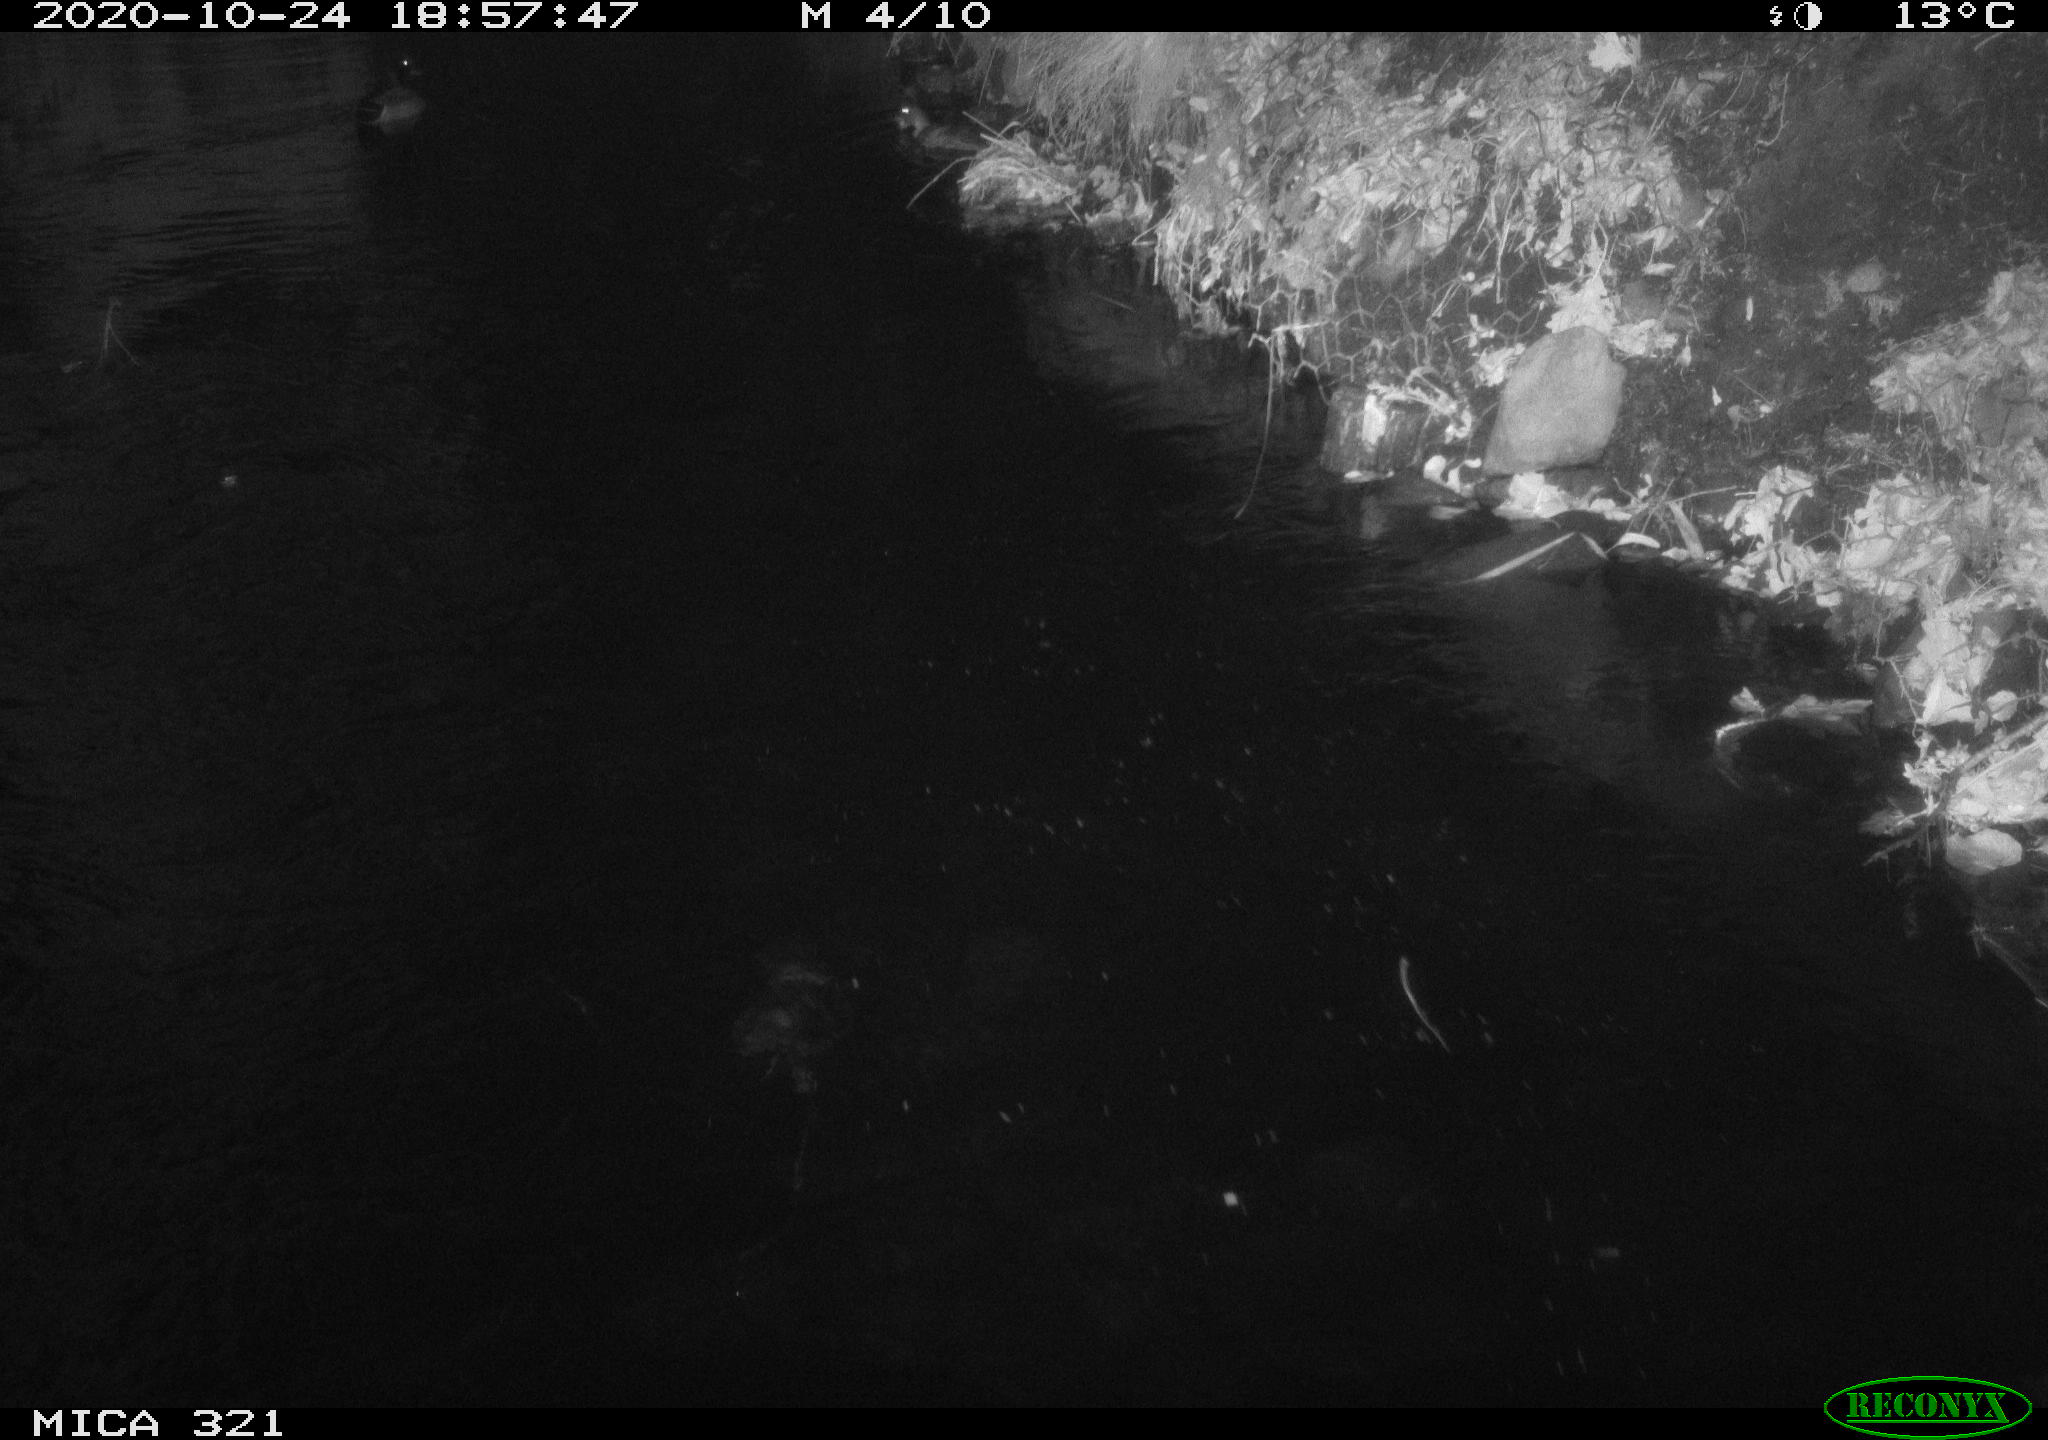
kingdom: Animalia
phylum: Chordata
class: Aves
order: Anseriformes
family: Anatidae
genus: Anas
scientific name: Anas platyrhynchos
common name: Mallard
